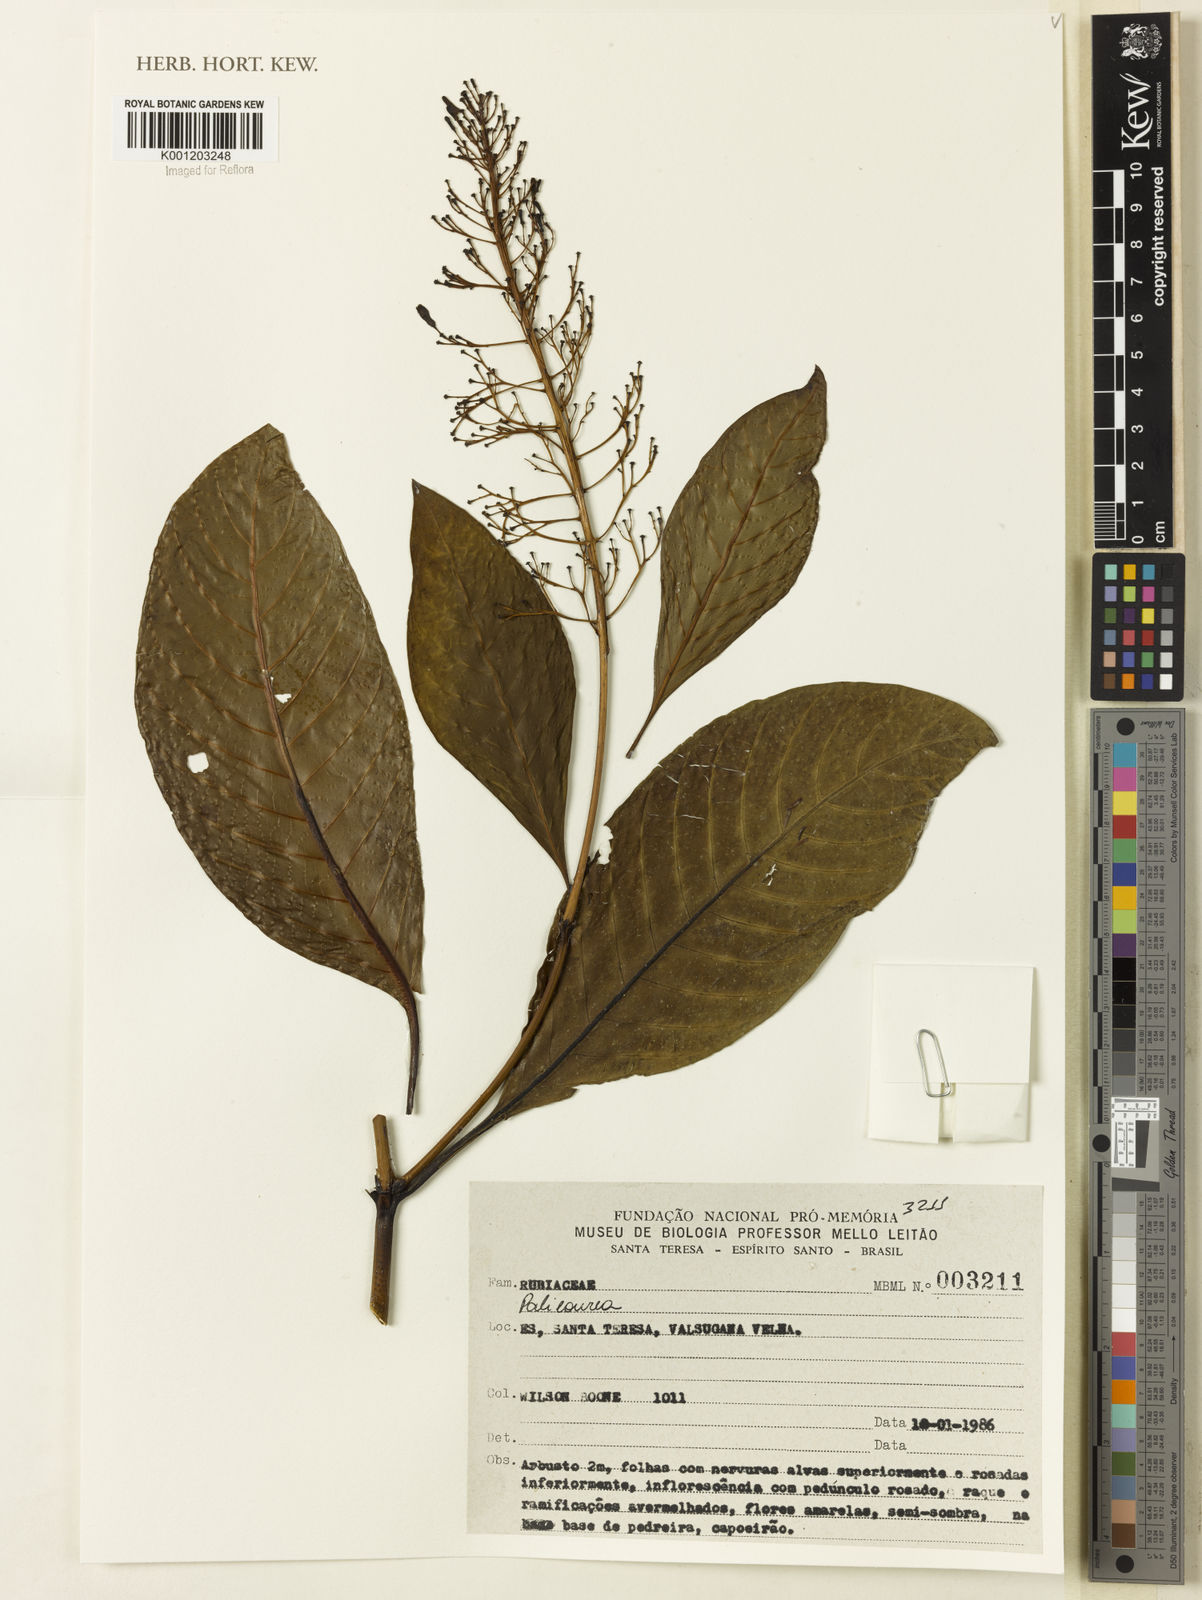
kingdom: Plantae
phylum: Tracheophyta
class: Magnoliopsida
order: Gentianales
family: Rubiaceae
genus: Palicourea
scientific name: Palicourea
